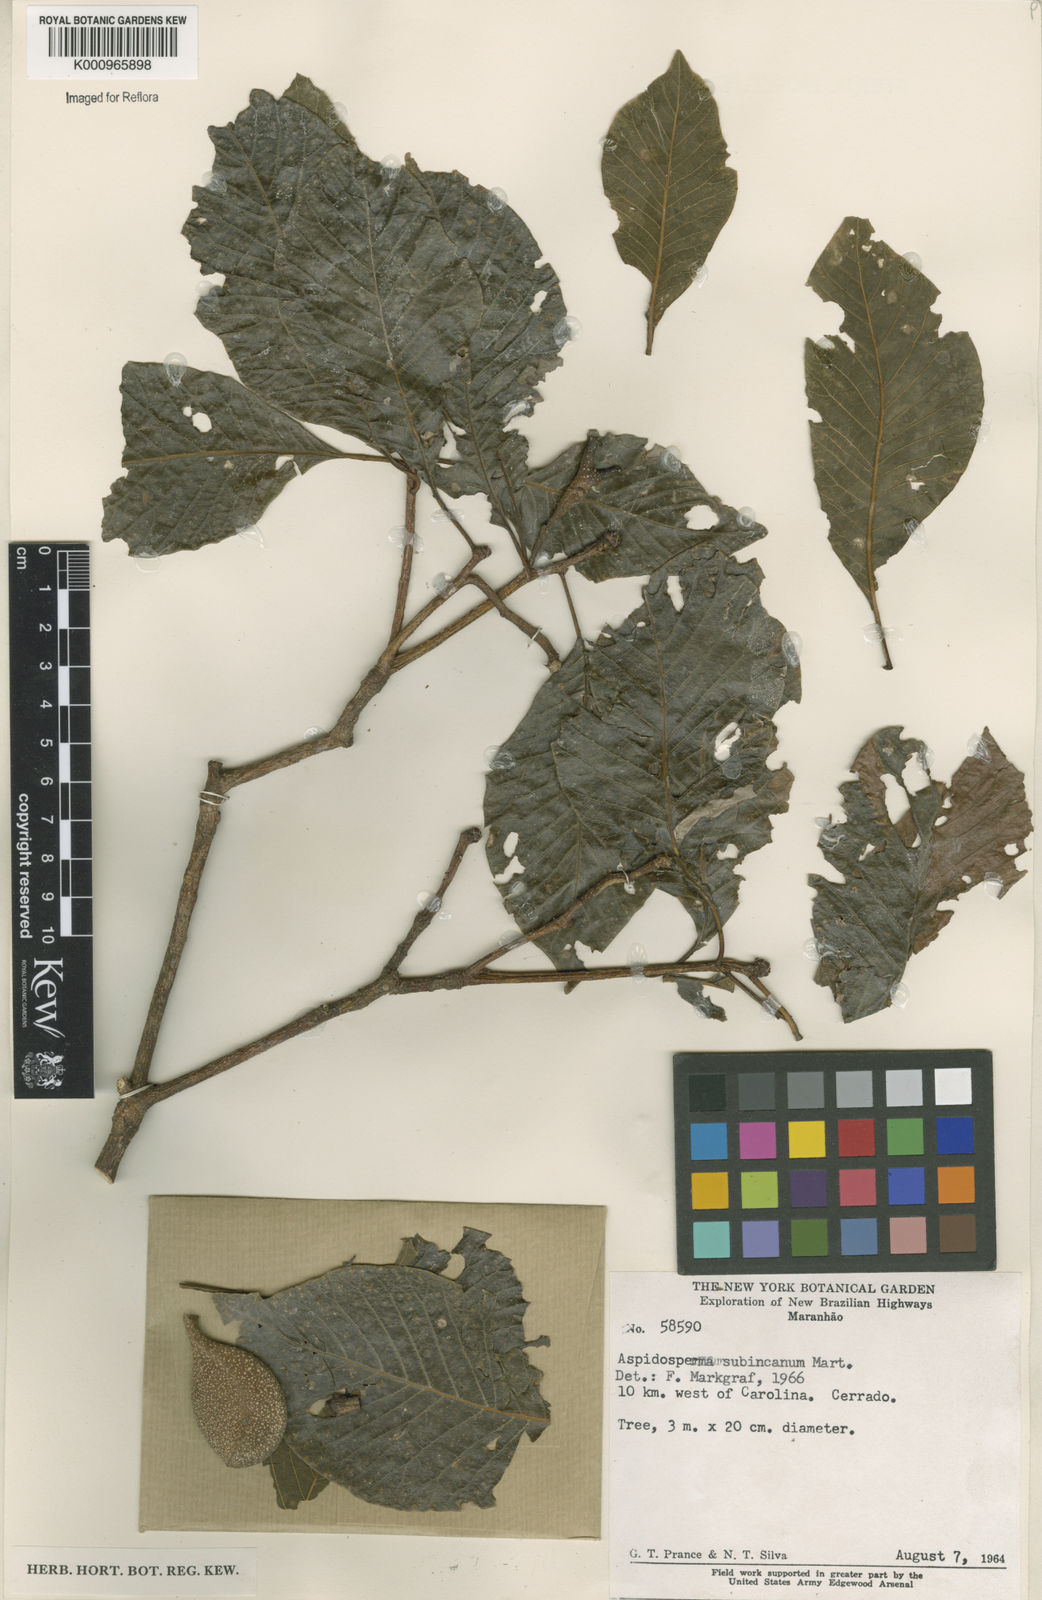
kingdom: Plantae
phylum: Tracheophyta
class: Magnoliopsida
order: Gentianales
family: Apocynaceae
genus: Aspidosperma
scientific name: Aspidosperma subincanum
